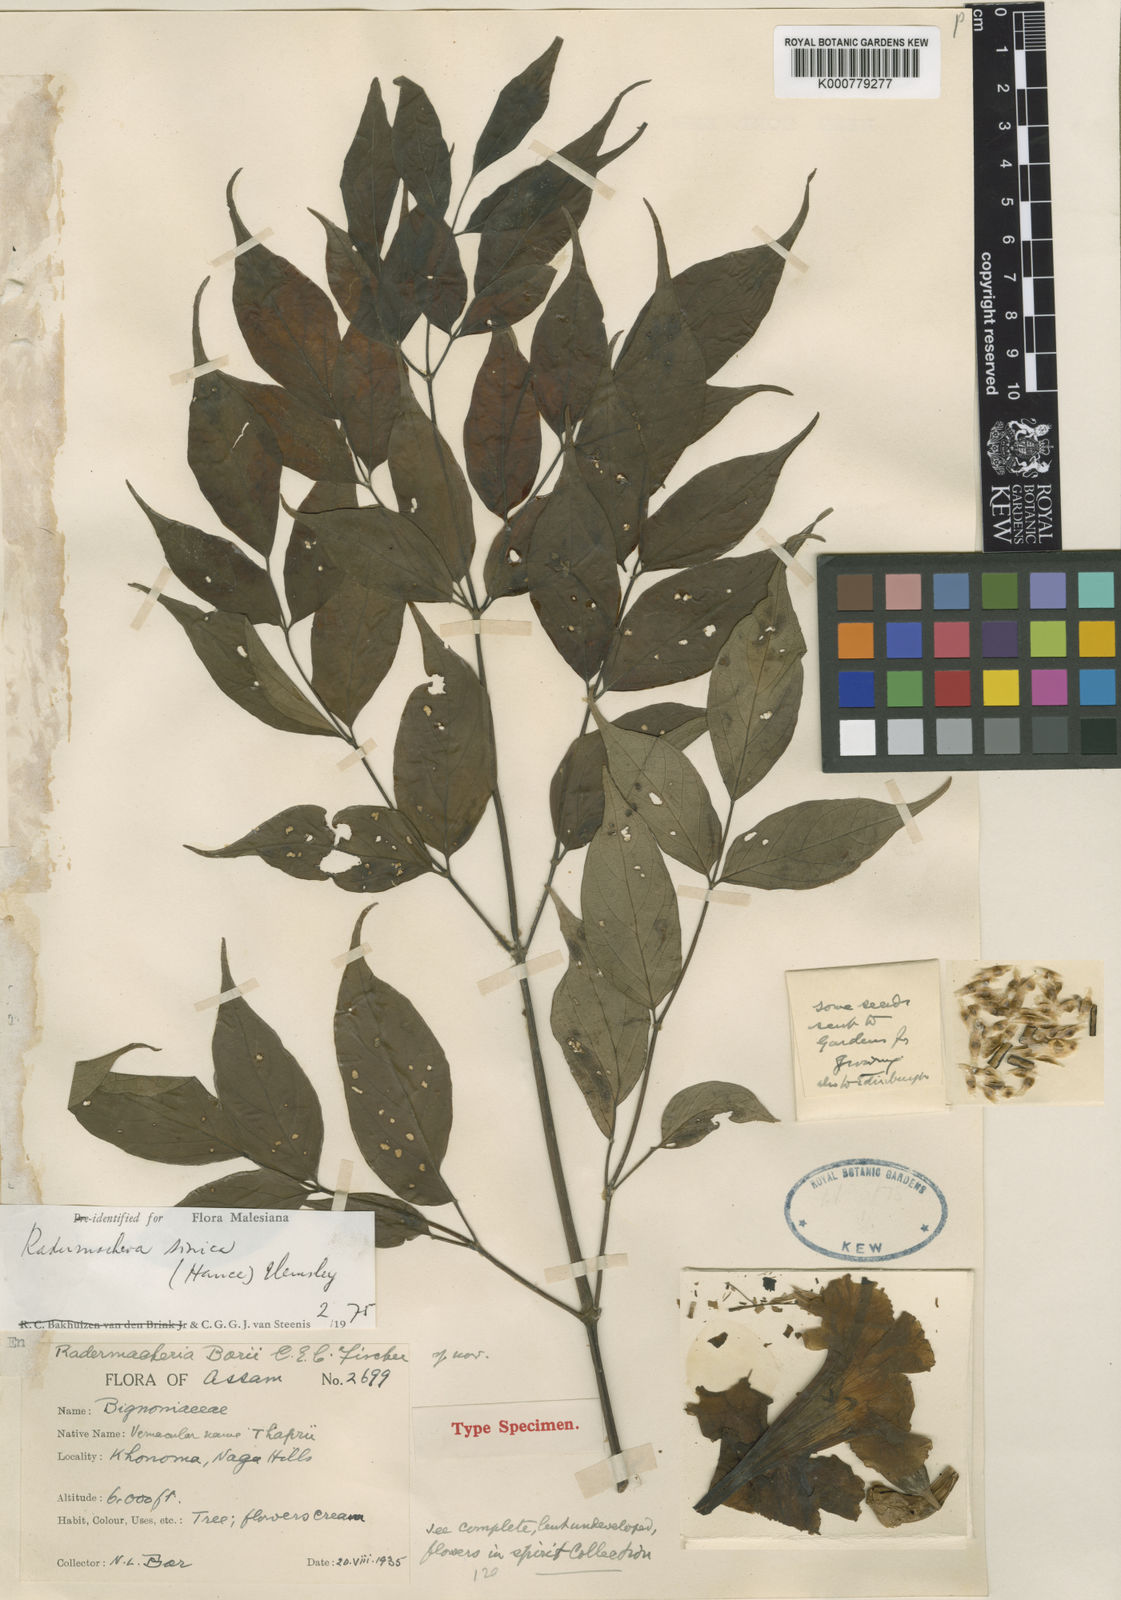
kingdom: Plantae
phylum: Tracheophyta
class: Magnoliopsida
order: Lamiales
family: Bignoniaceae
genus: Radermachera
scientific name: Radermachera sinica
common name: China doll plant
